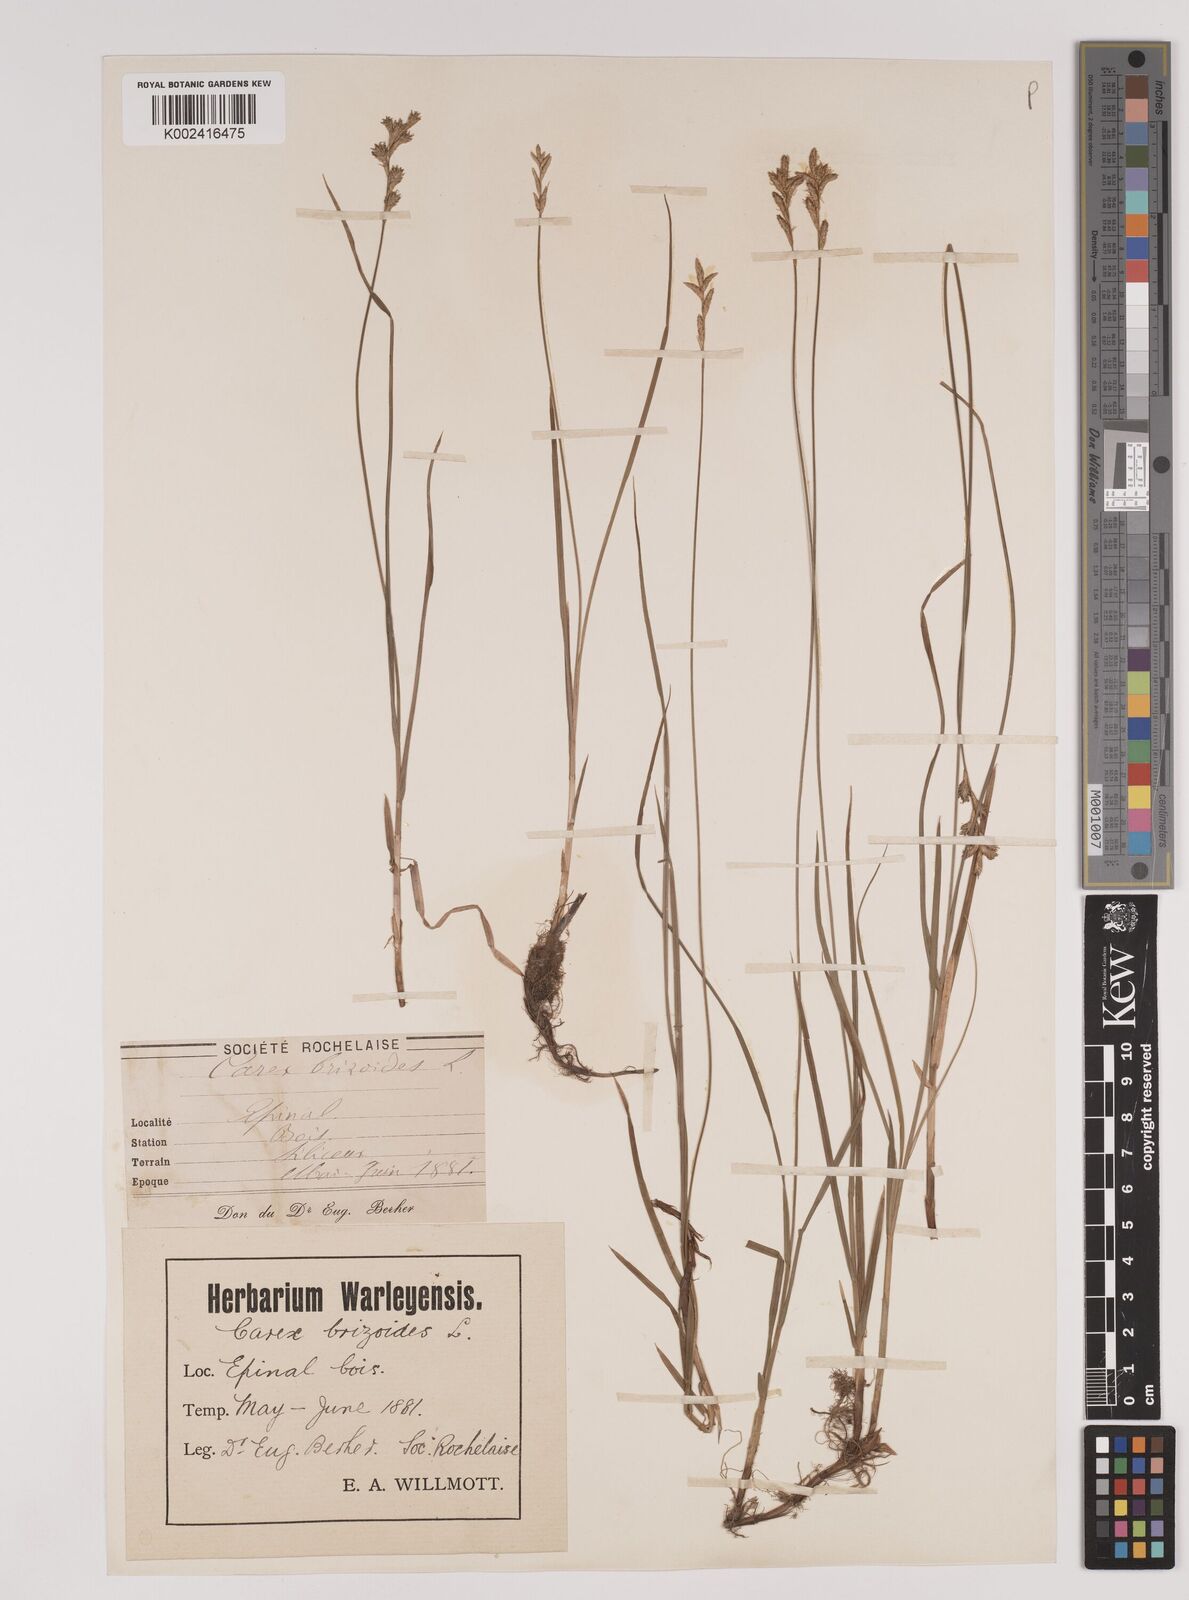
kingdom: Plantae
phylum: Tracheophyta
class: Liliopsida
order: Poales
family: Cyperaceae
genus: Carex
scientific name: Carex brizoides
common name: Quaking-grass sedge
